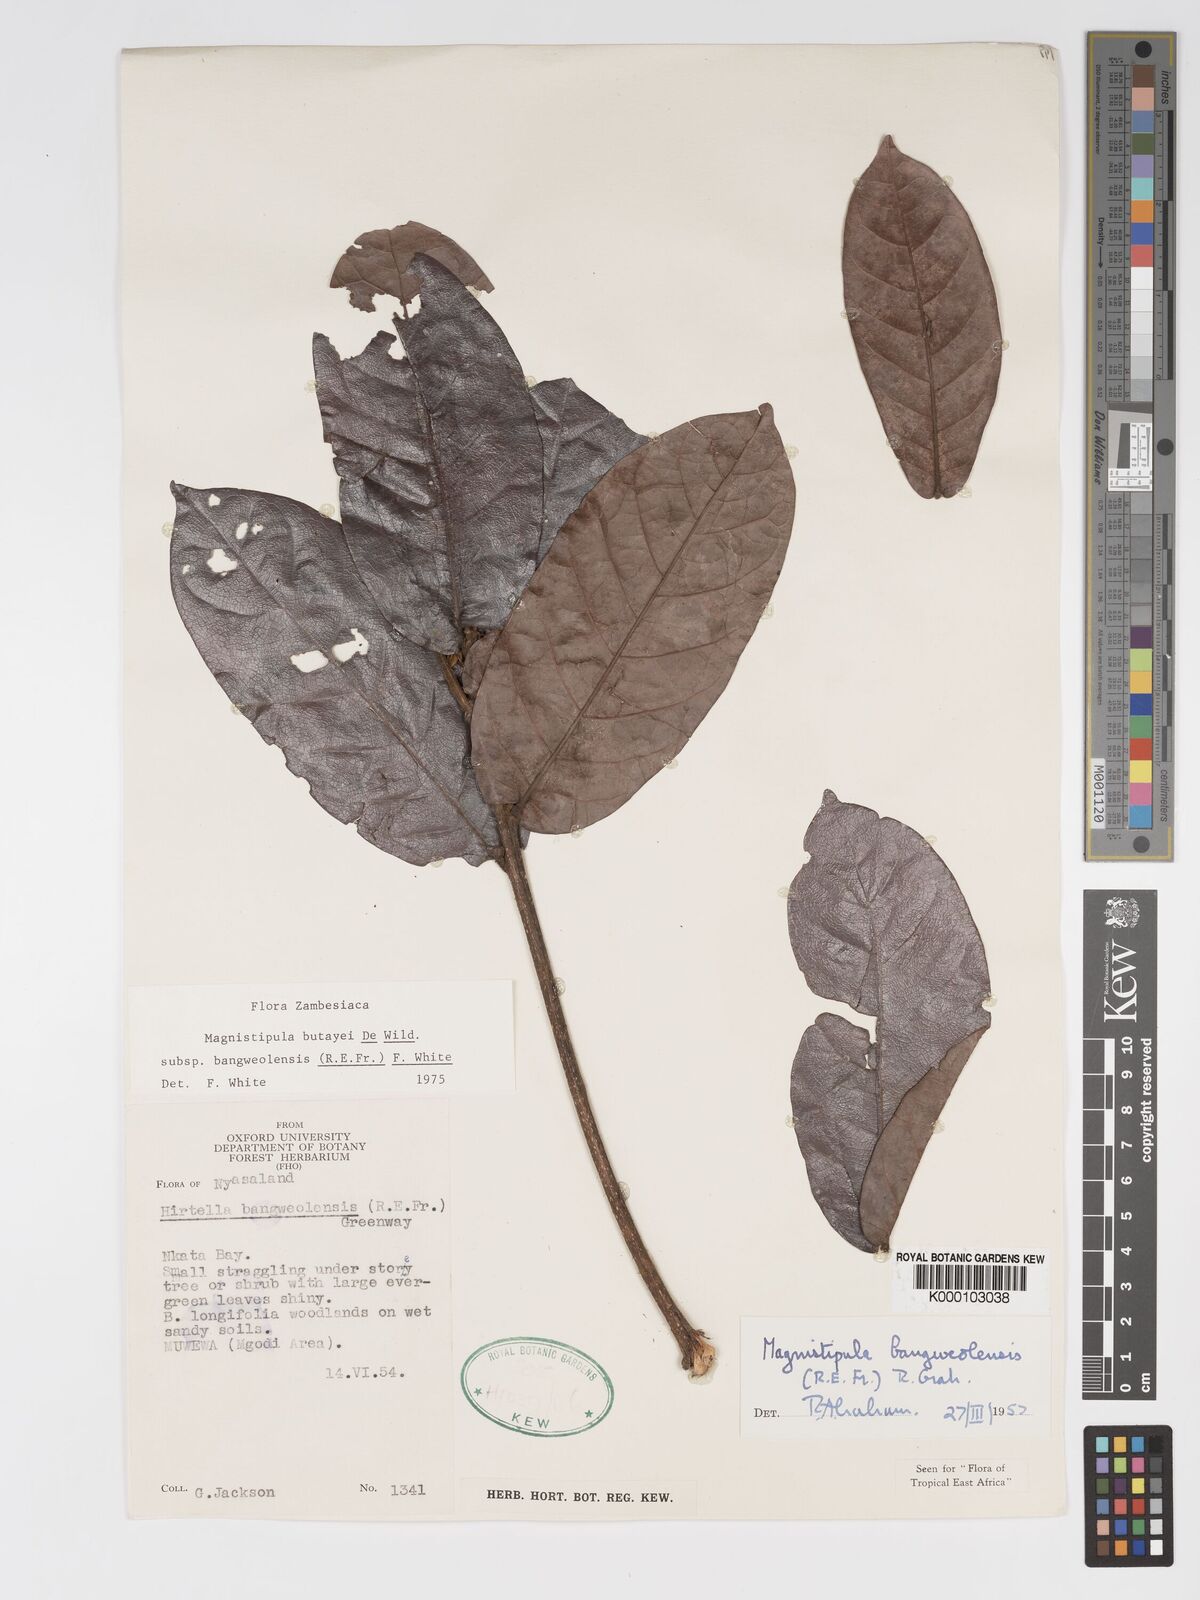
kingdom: Plantae
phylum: Tracheophyta
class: Magnoliopsida
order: Malpighiales
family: Chrysobalanaceae
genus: Magnistipula
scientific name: Magnistipula butayei
